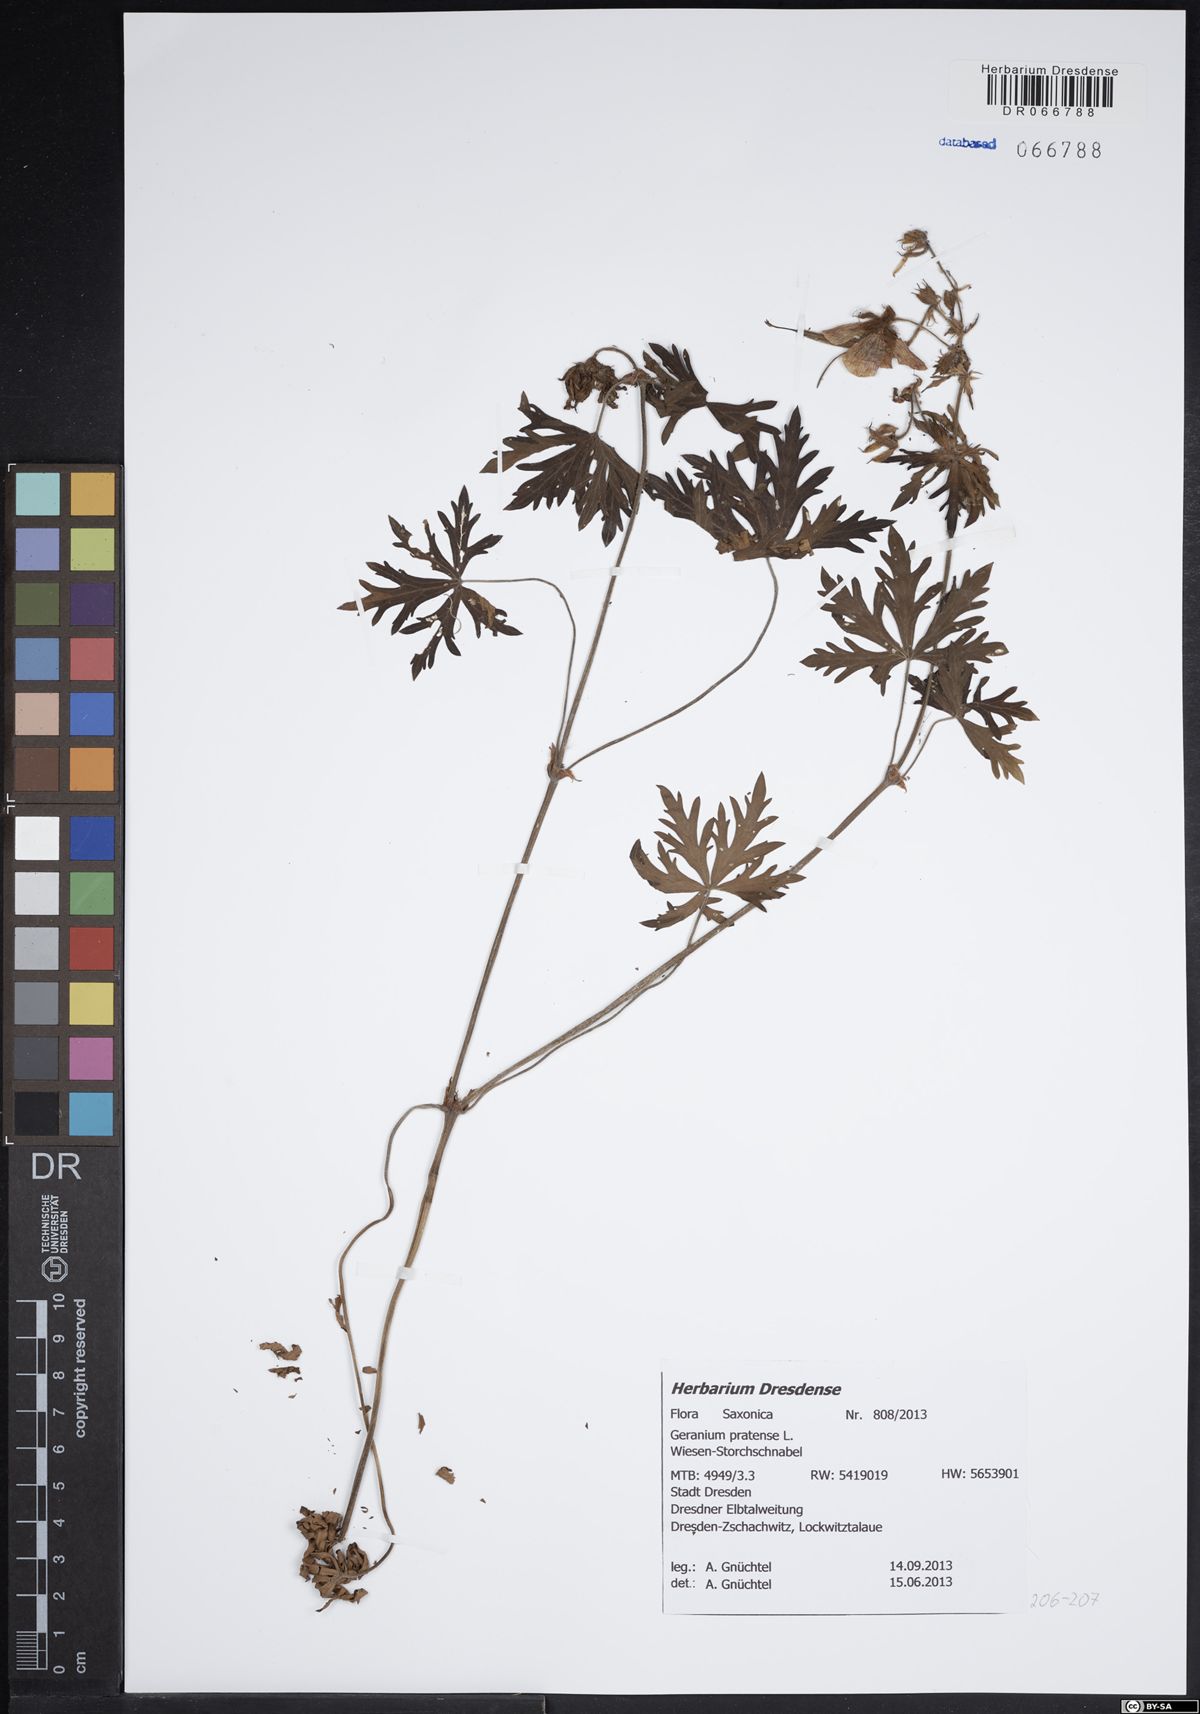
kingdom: Plantae
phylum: Tracheophyta
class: Magnoliopsida
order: Geraniales
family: Geraniaceae
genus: Geranium
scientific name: Geranium pratense
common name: Meadow crane's-bill
